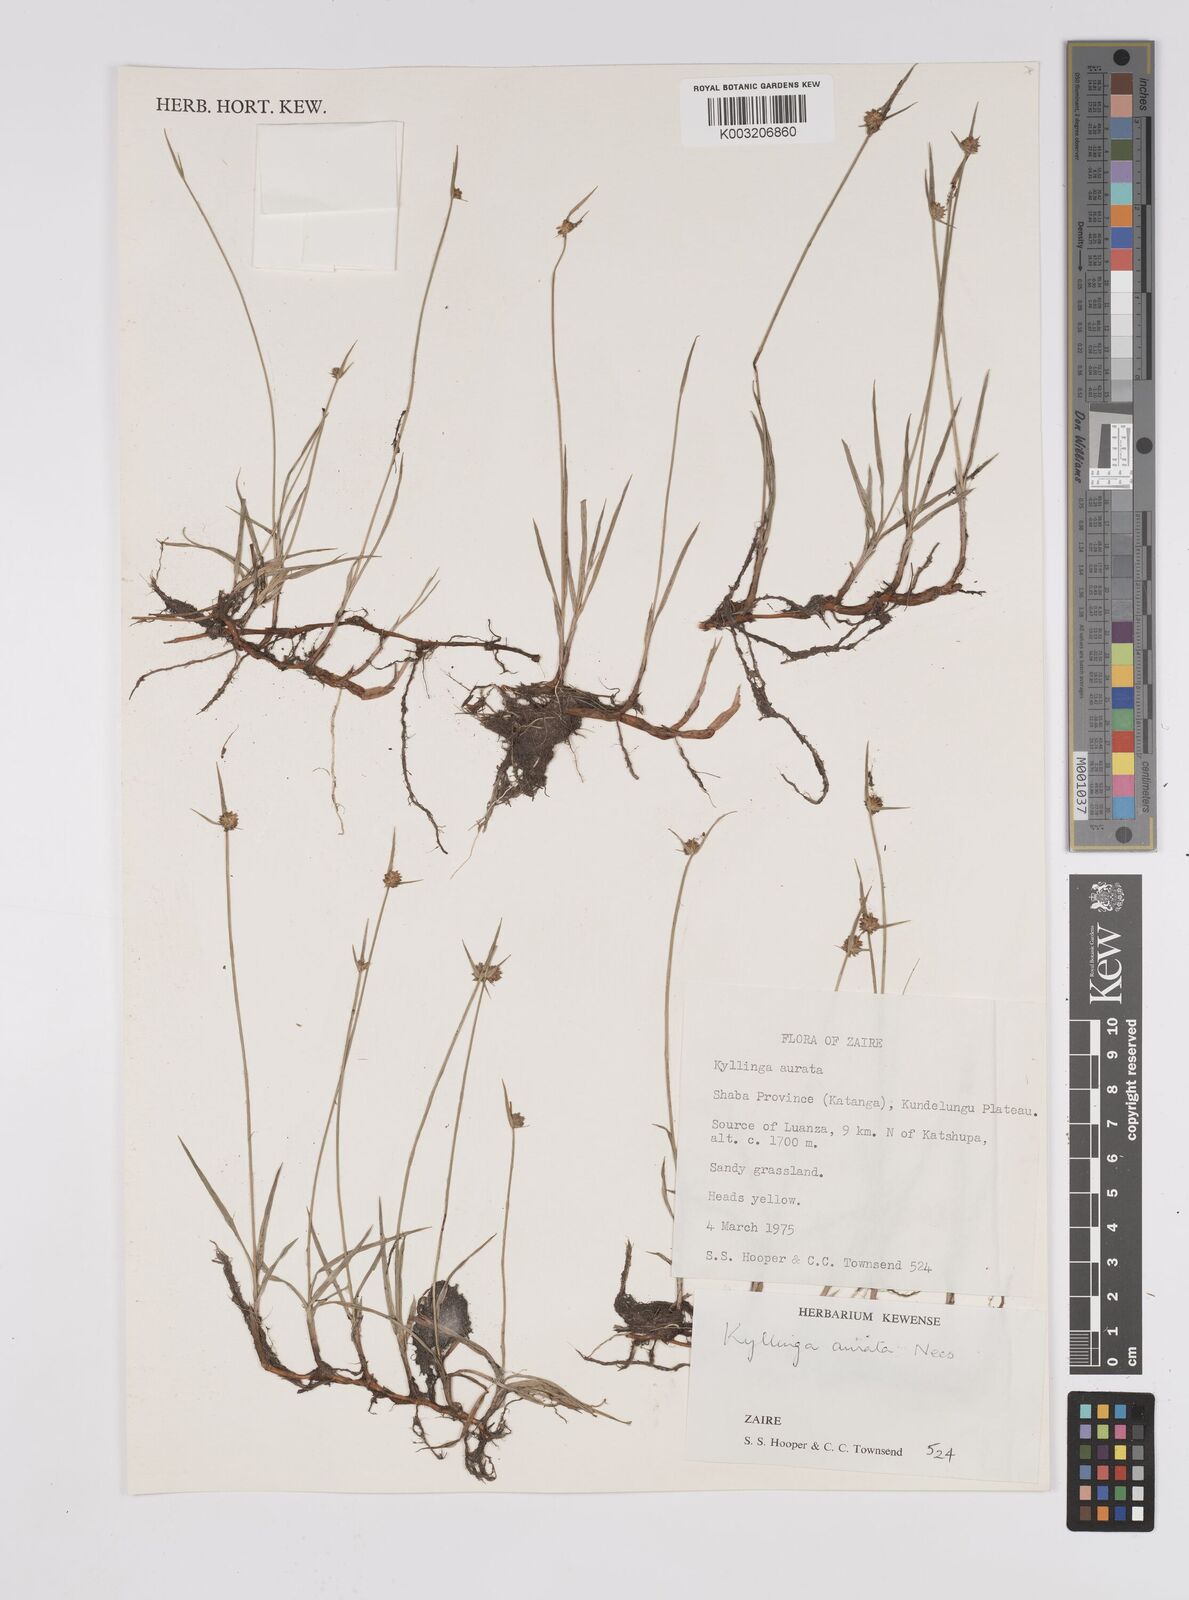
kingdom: Plantae
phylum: Tracheophyta
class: Liliopsida
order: Poales
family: Cyperaceae
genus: Cyperus
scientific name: Cyperus erectus
